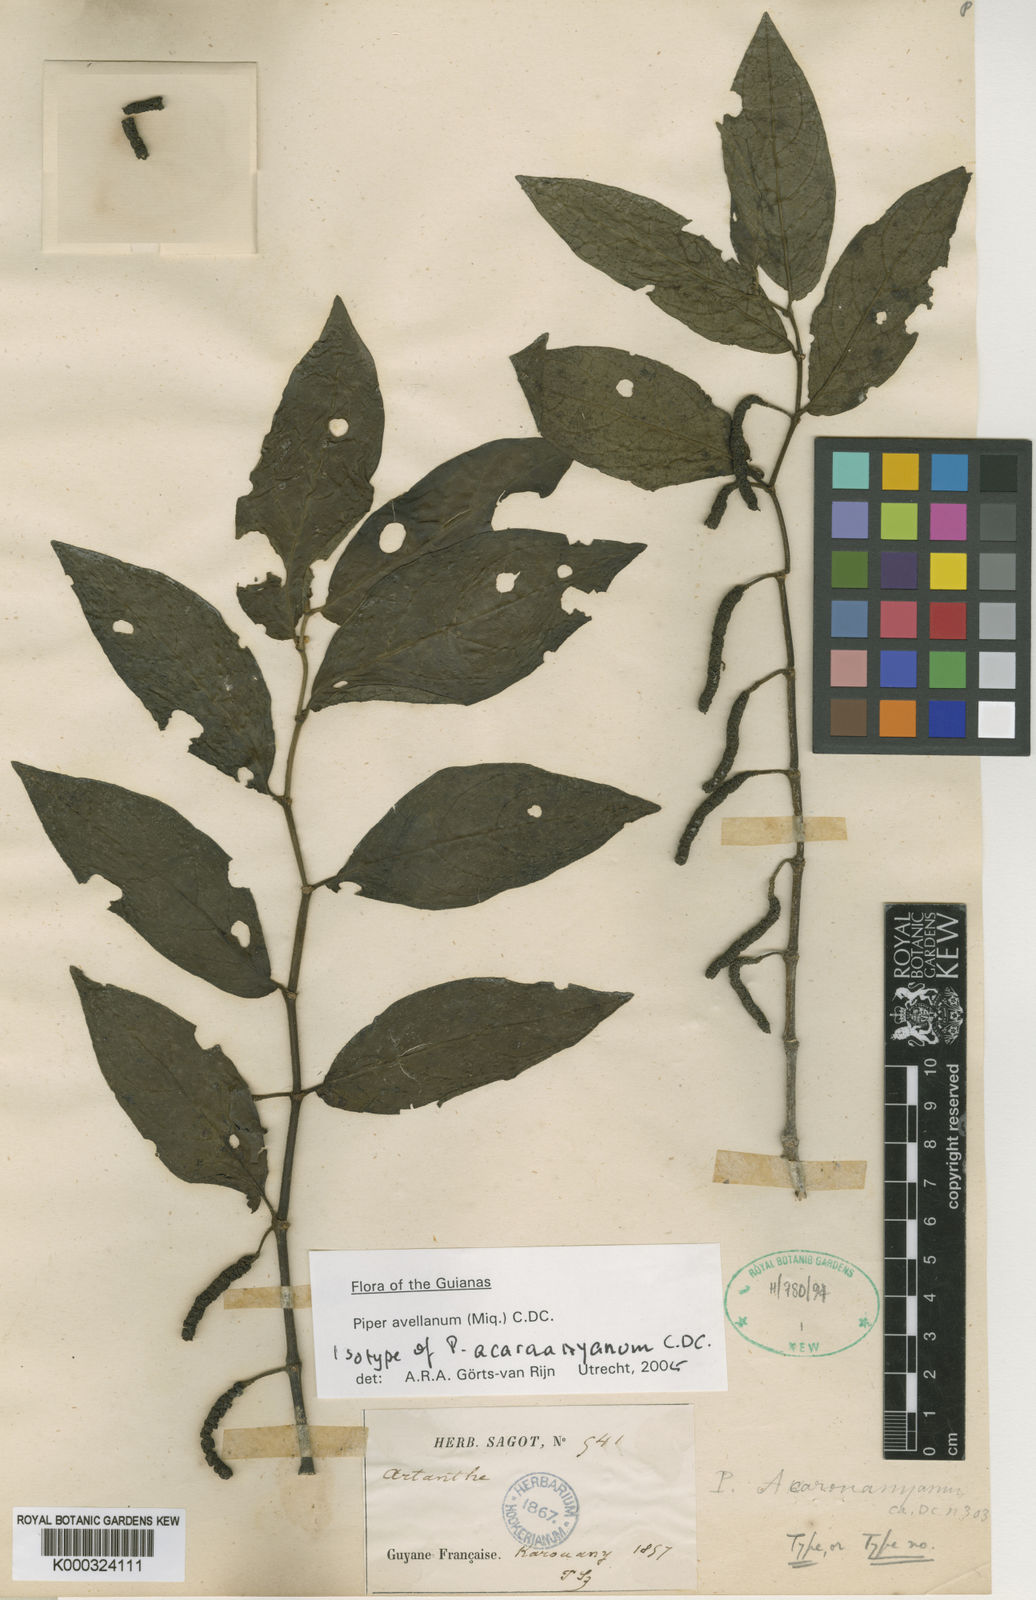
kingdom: Plantae
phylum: Tracheophyta
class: Magnoliopsida
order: Piperales
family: Piperaceae
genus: Piper
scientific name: Piper avellanum
